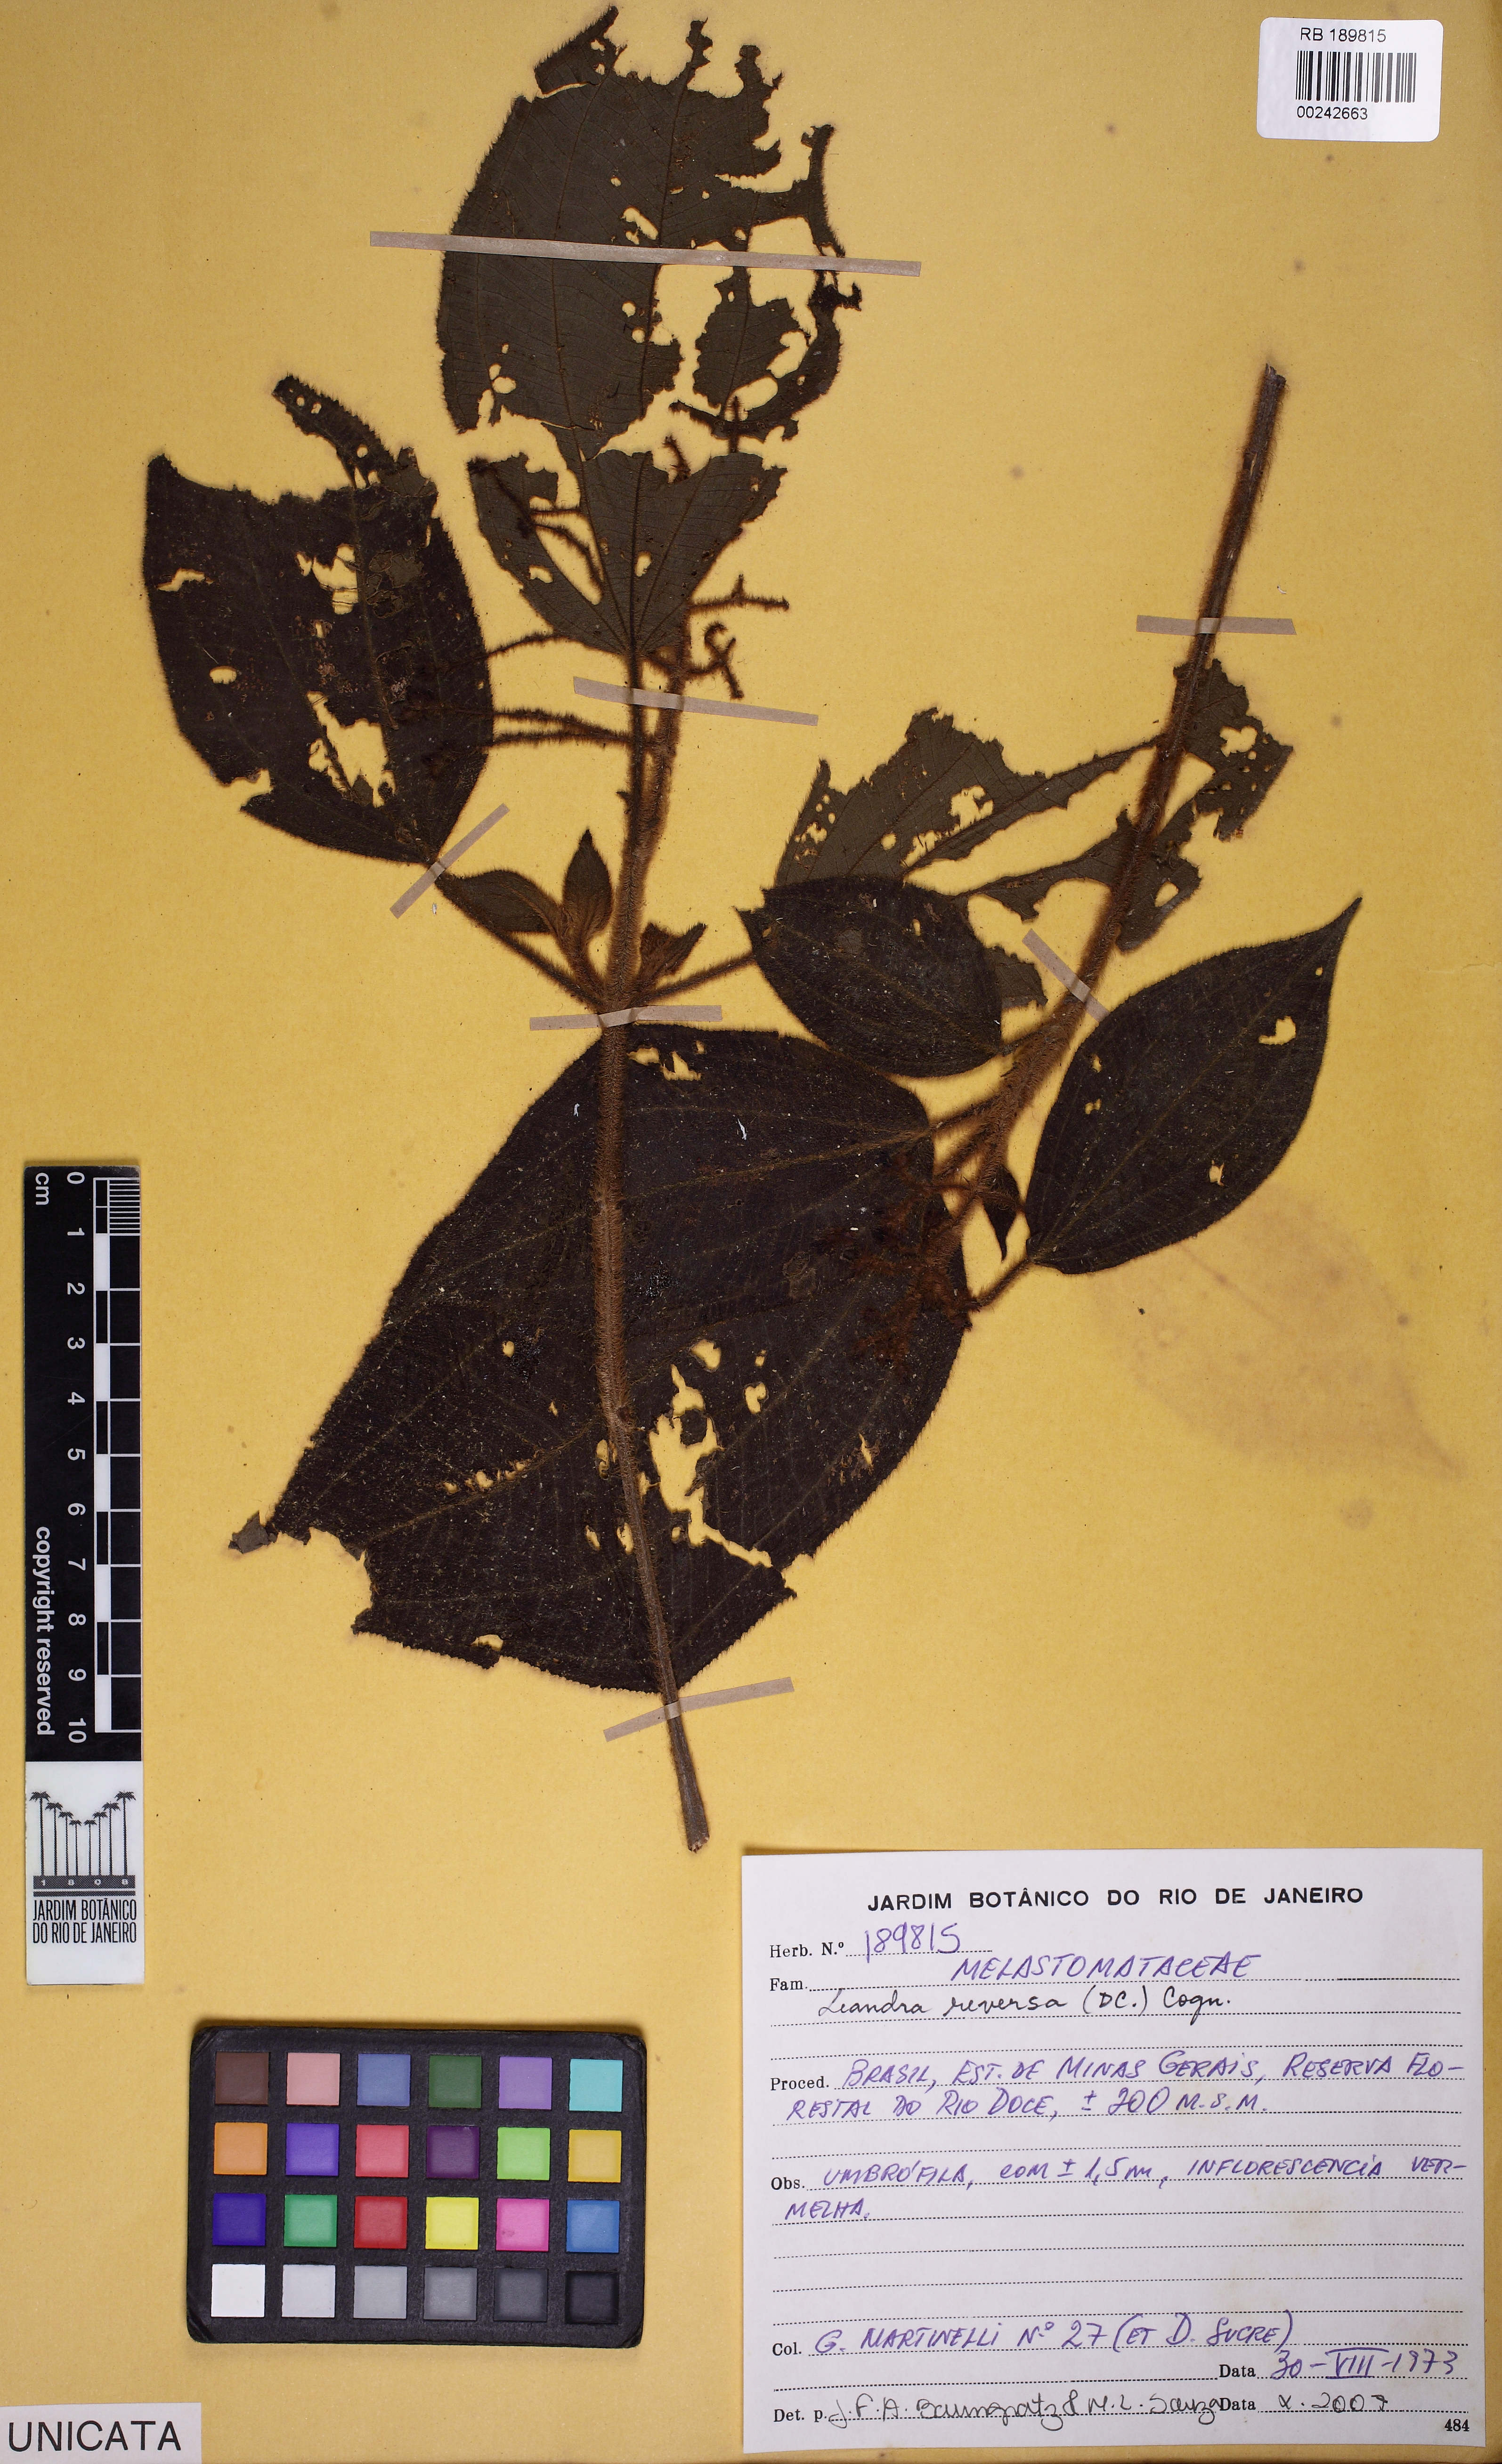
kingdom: Plantae
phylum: Tracheophyta
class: Magnoliopsida
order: Myrtales
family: Melastomataceae
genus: Miconia
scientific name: Miconia reversa
